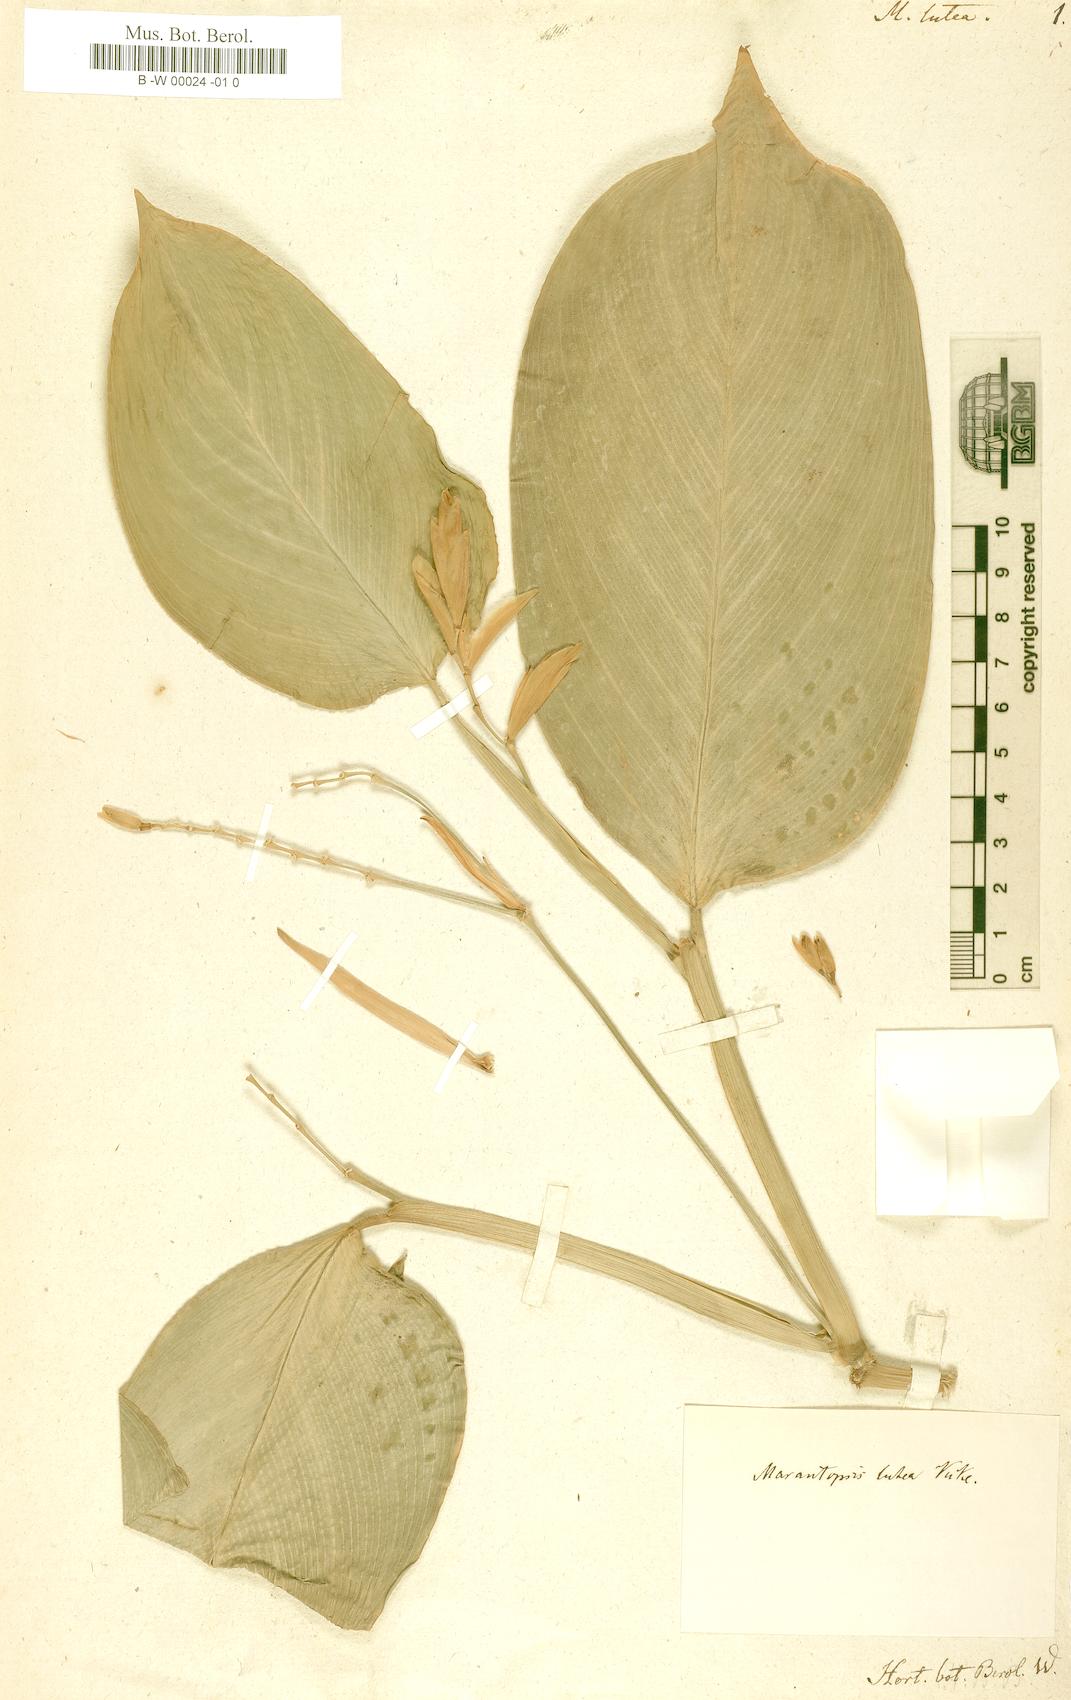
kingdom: Plantae
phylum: Tracheophyta
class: Liliopsida
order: Zingiberales
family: Marantaceae
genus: Stromanthe
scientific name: Stromanthe jacquinii
